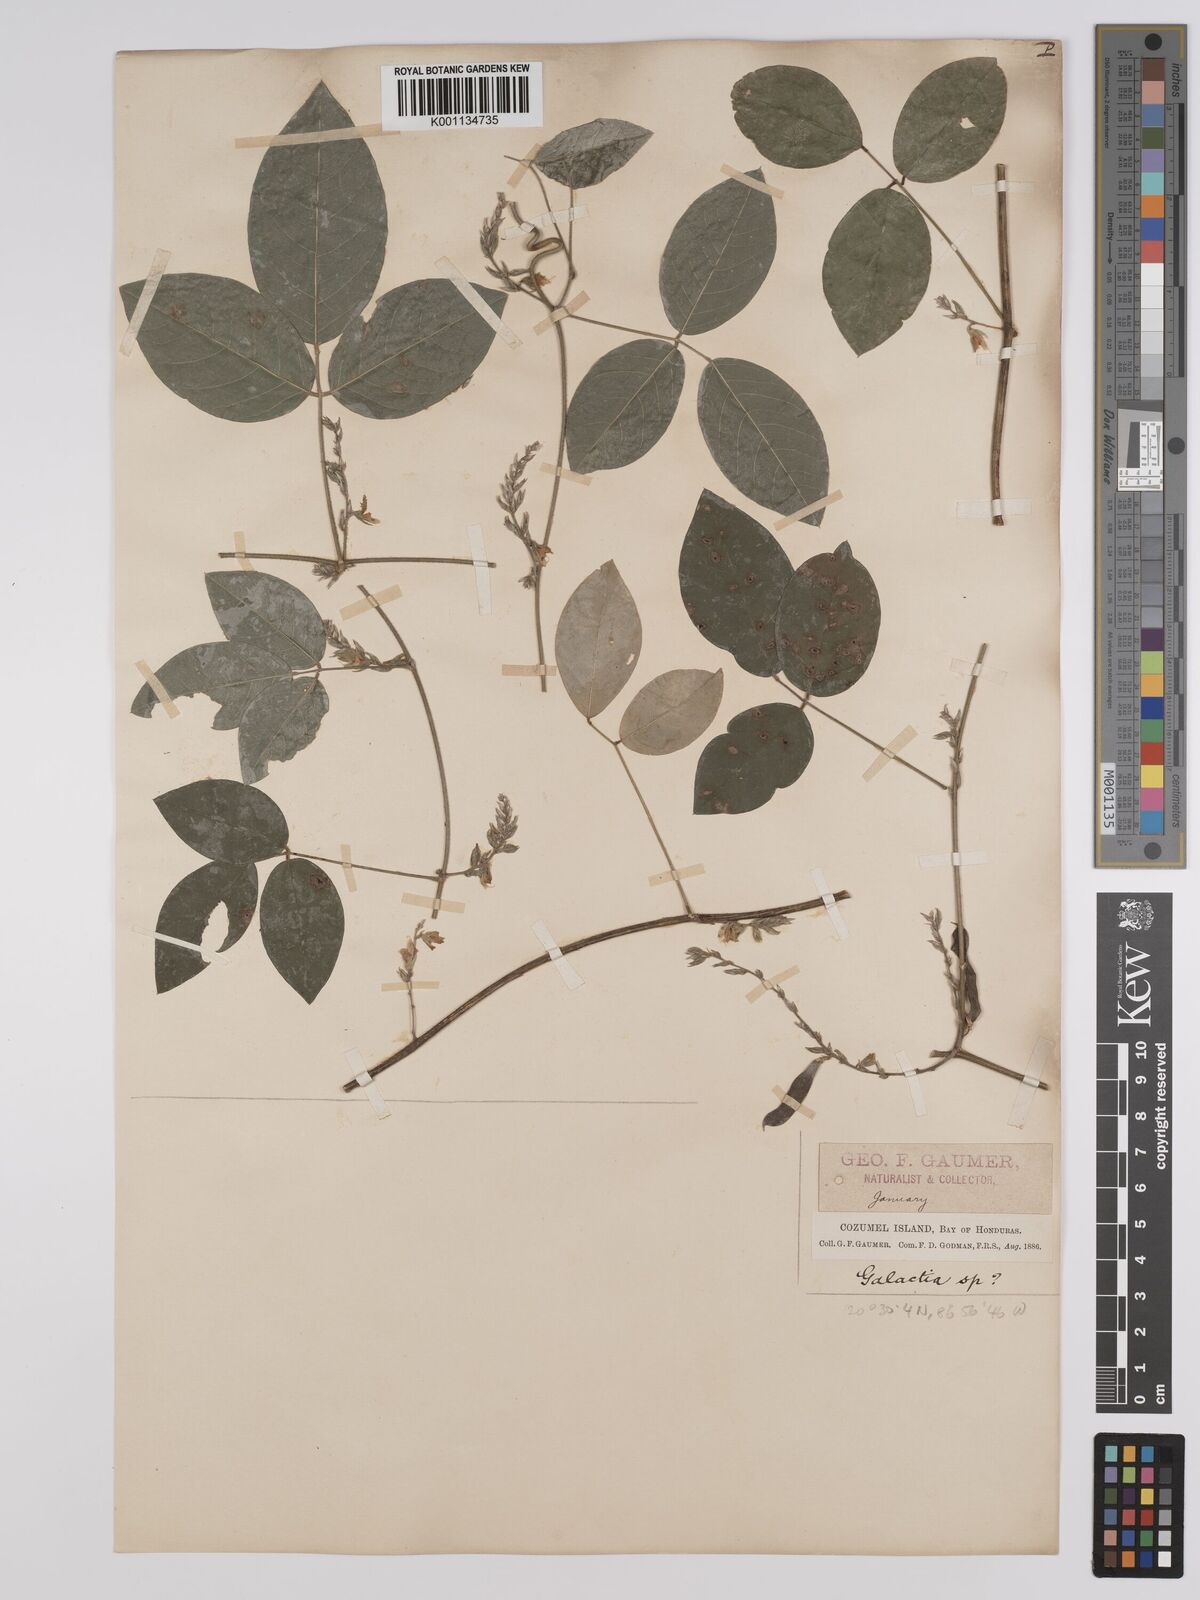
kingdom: Plantae
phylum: Tracheophyta
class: Magnoliopsida
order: Fabales
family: Fabaceae
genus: Galactia
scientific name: Galactia striata
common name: Florida hammock milkpea
